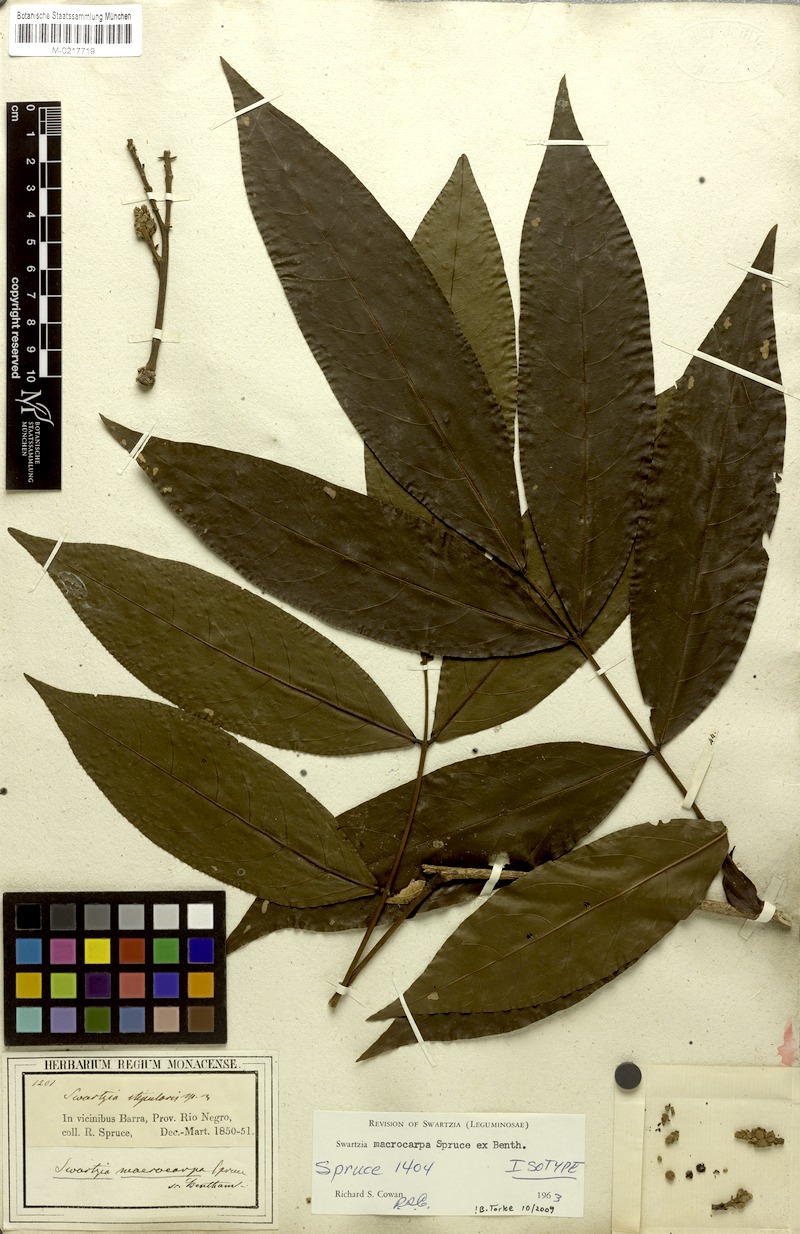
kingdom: Plantae
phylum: Tracheophyta
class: Magnoliopsida
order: Fabales
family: Fabaceae
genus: Swartzia
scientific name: Swartzia macrocarpa
